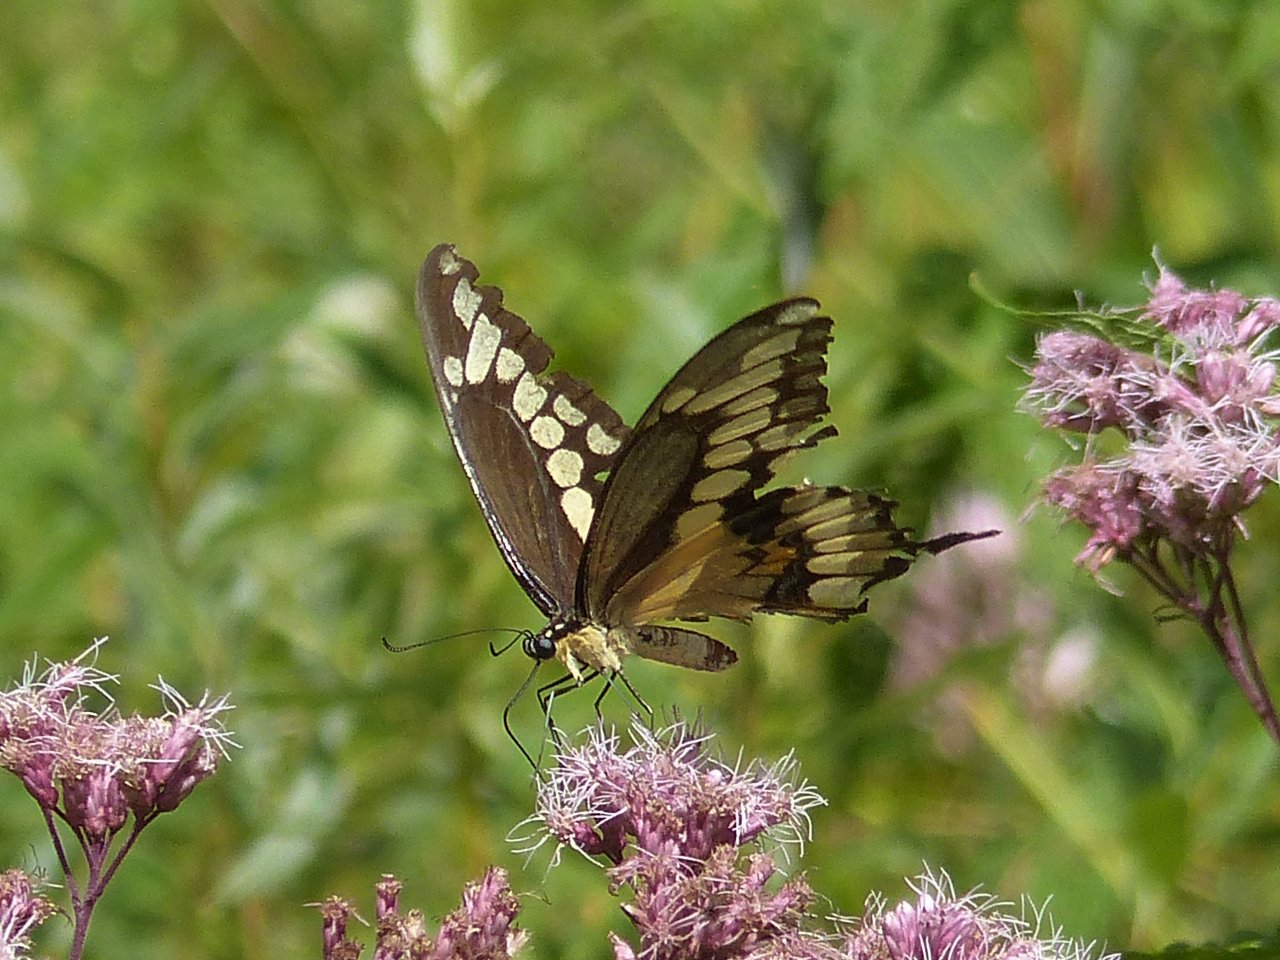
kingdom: Animalia
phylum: Arthropoda
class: Insecta
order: Lepidoptera
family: Papilionidae
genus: Papilio
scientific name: Papilio cresphontes
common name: Eastern Giant Swallowtail
